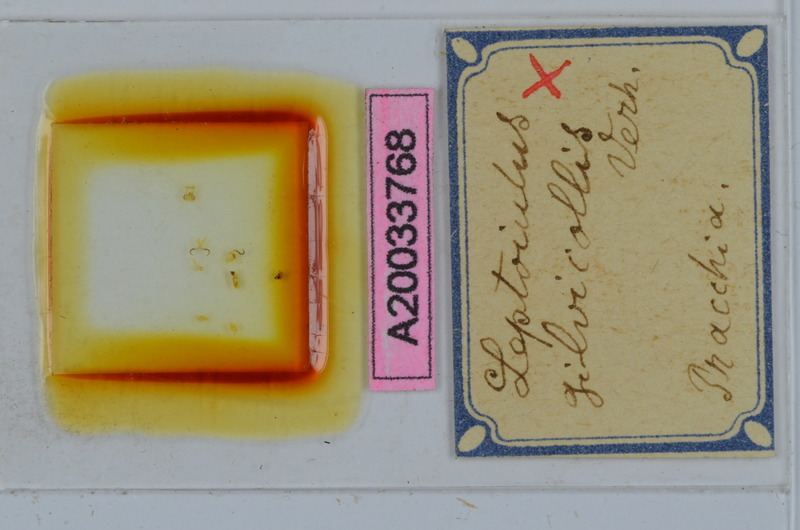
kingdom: Animalia
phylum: Arthropoda
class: Diplopoda
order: Julida
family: Julidae
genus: Leptoiulus
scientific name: Leptoiulus gilvicollis
